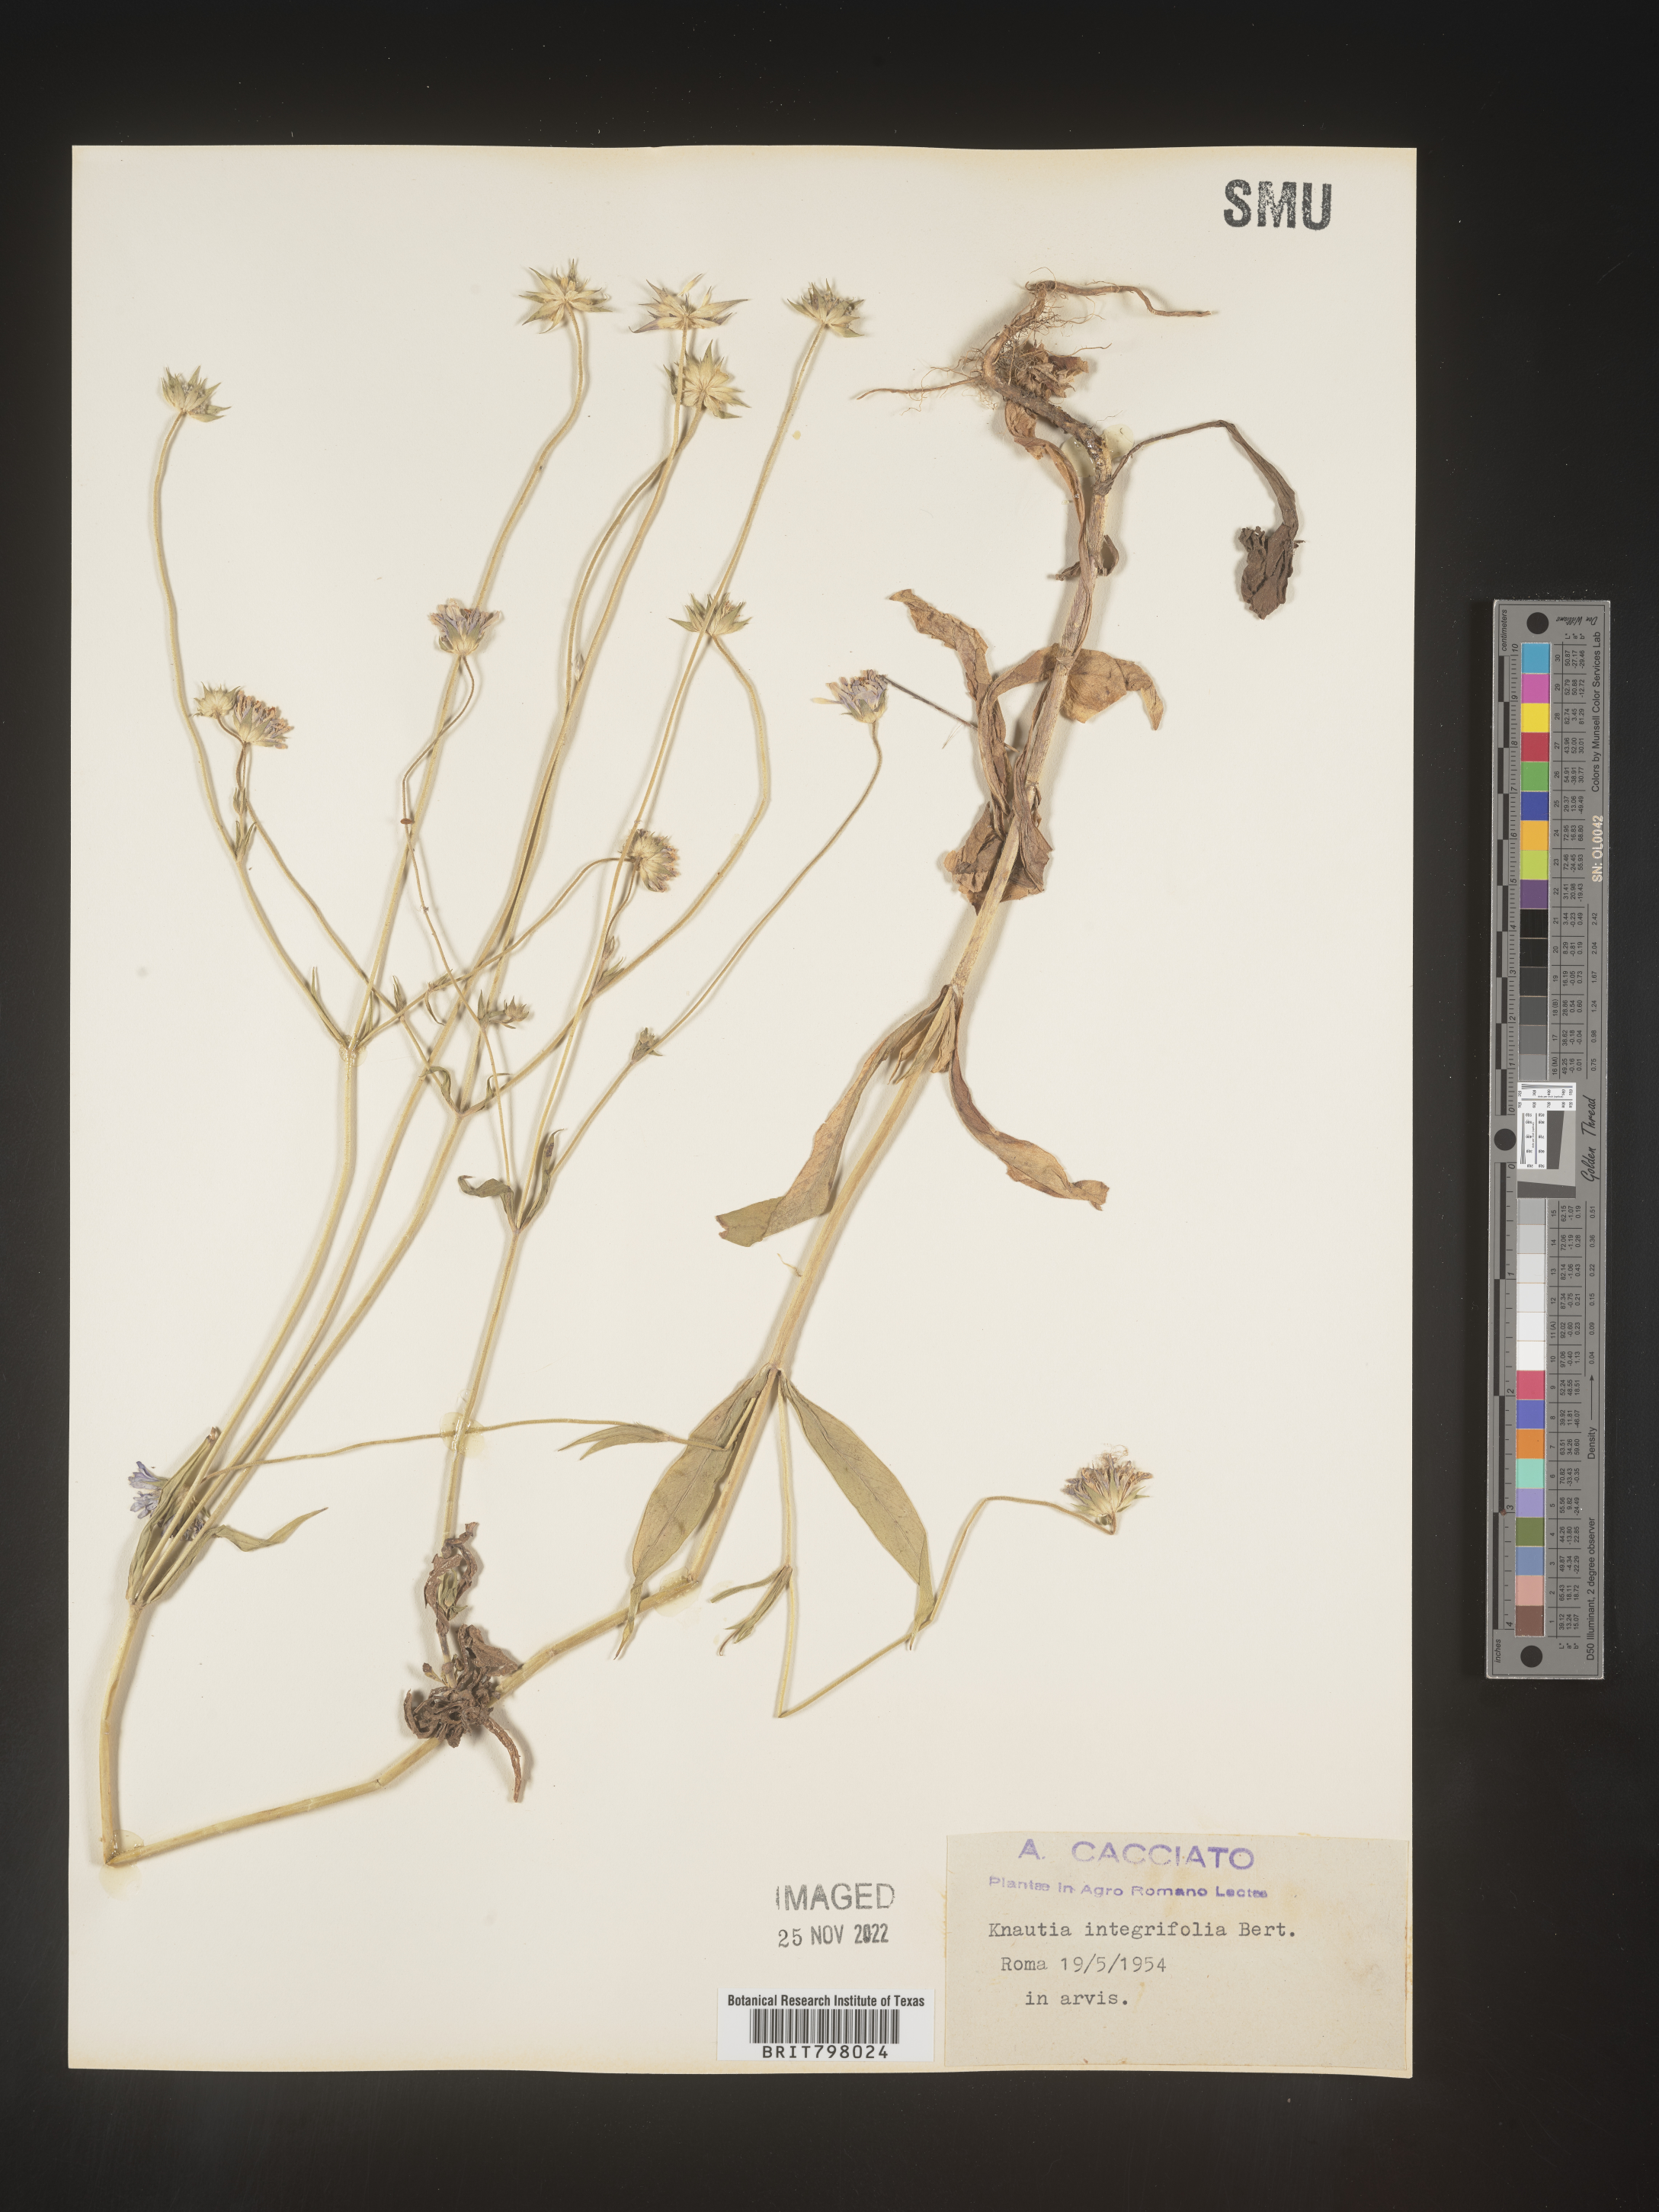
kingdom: Plantae
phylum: Tracheophyta
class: Magnoliopsida
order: Dipsacales
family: Caprifoliaceae
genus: Knautia
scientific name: Knautia
